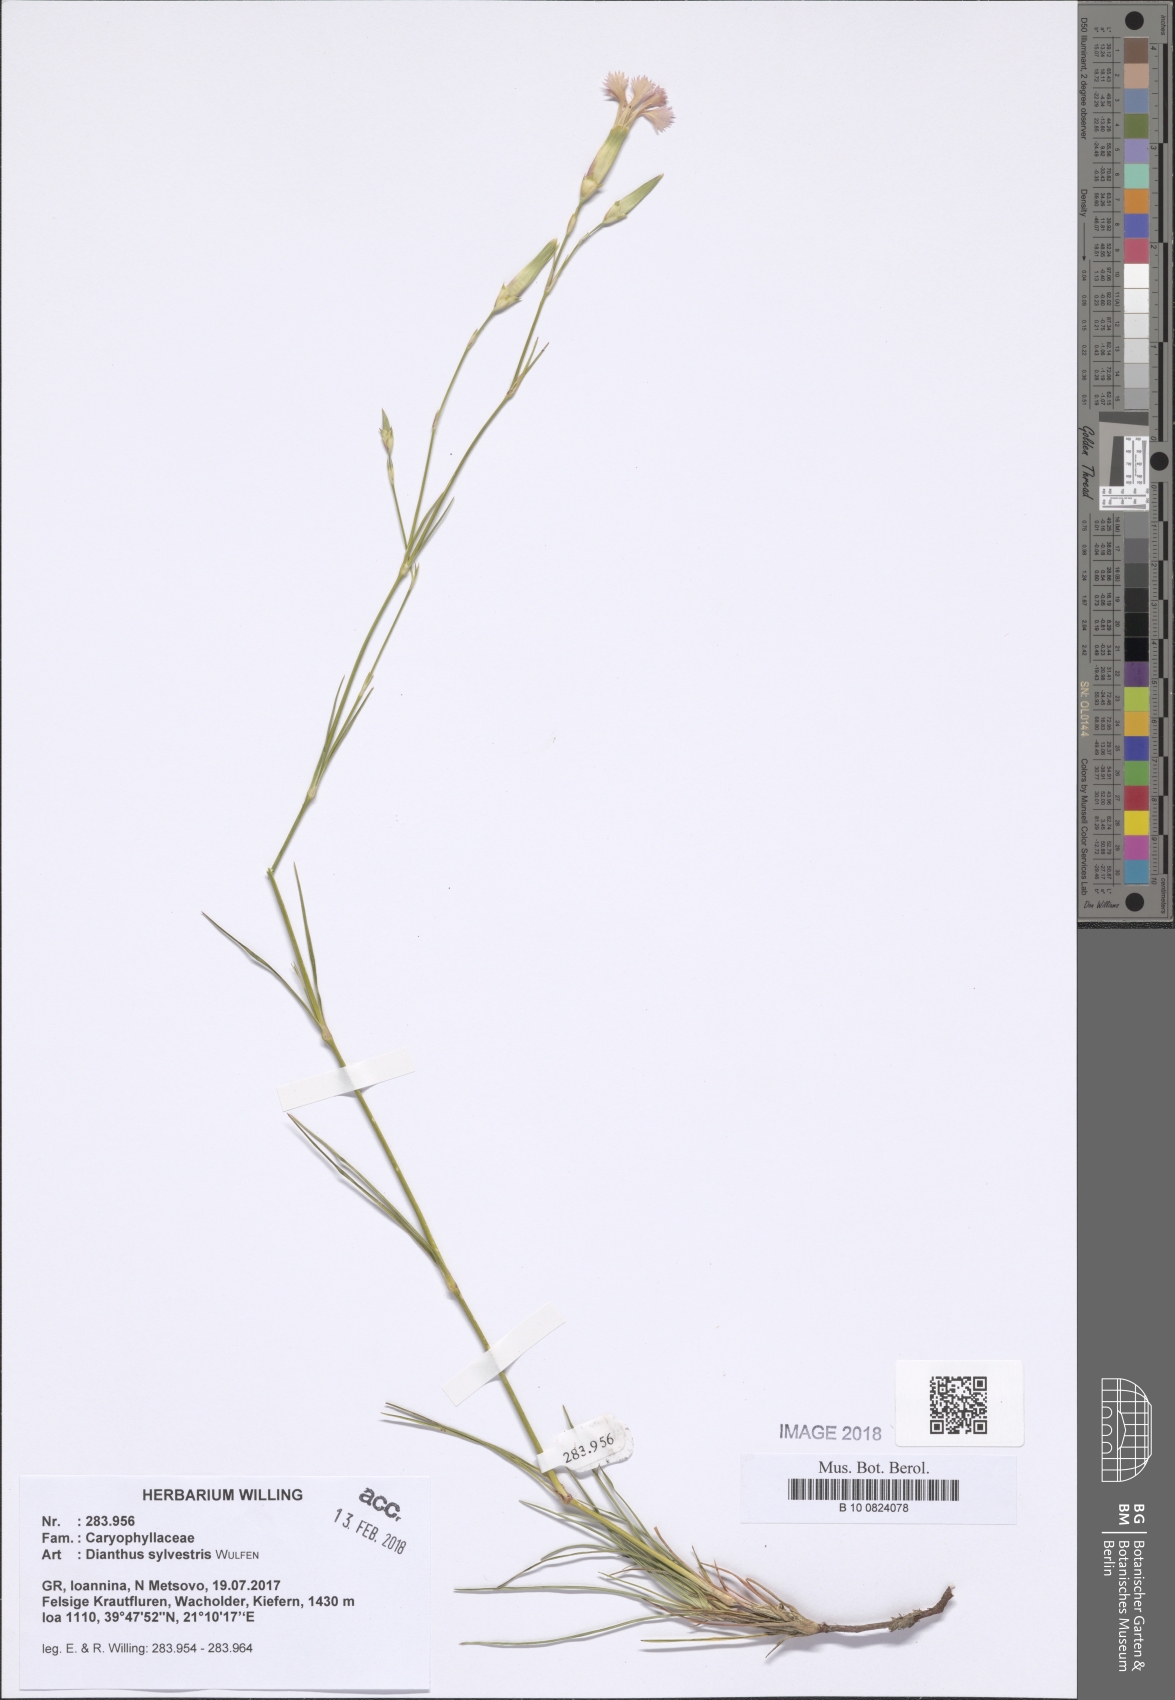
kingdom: Plantae
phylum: Tracheophyta
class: Magnoliopsida
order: Caryophyllales
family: Caryophyllaceae
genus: Dianthus
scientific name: Dianthus sylvestris
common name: Wood pink
